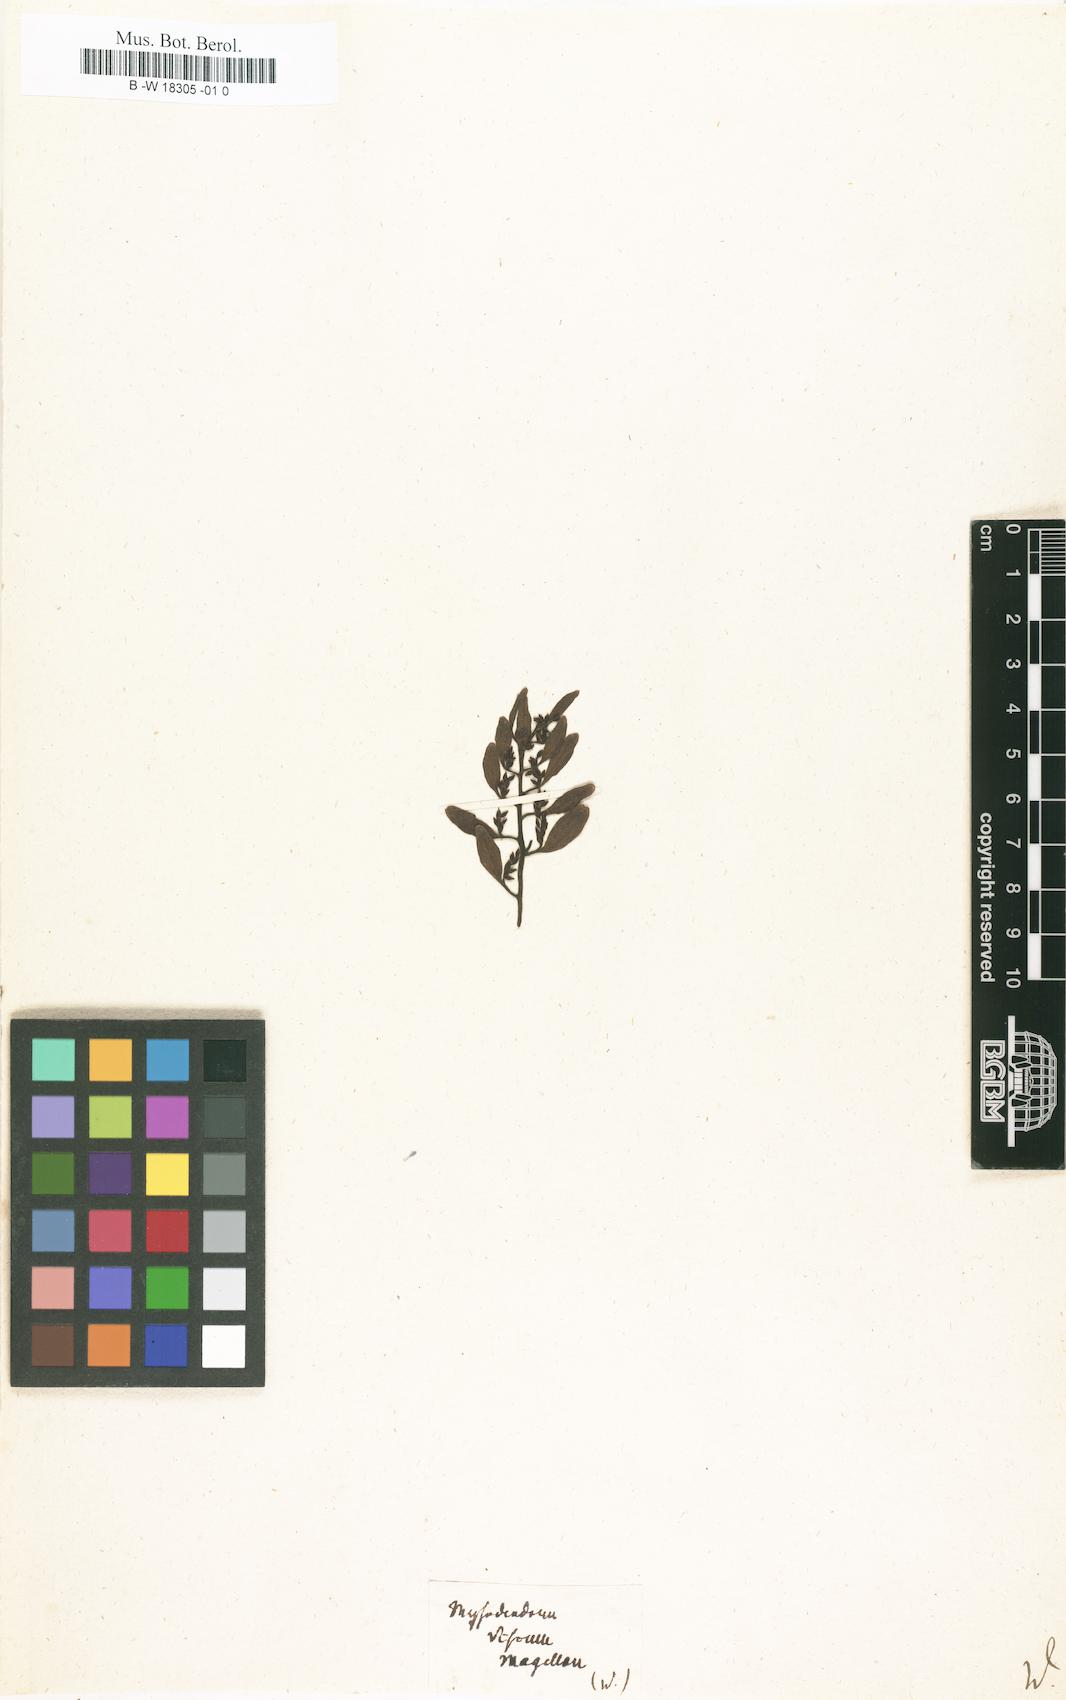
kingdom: Plantae
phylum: Tracheophyta
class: Magnoliopsida
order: Santalales
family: Viscaceae
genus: Viscum
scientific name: Viscum
